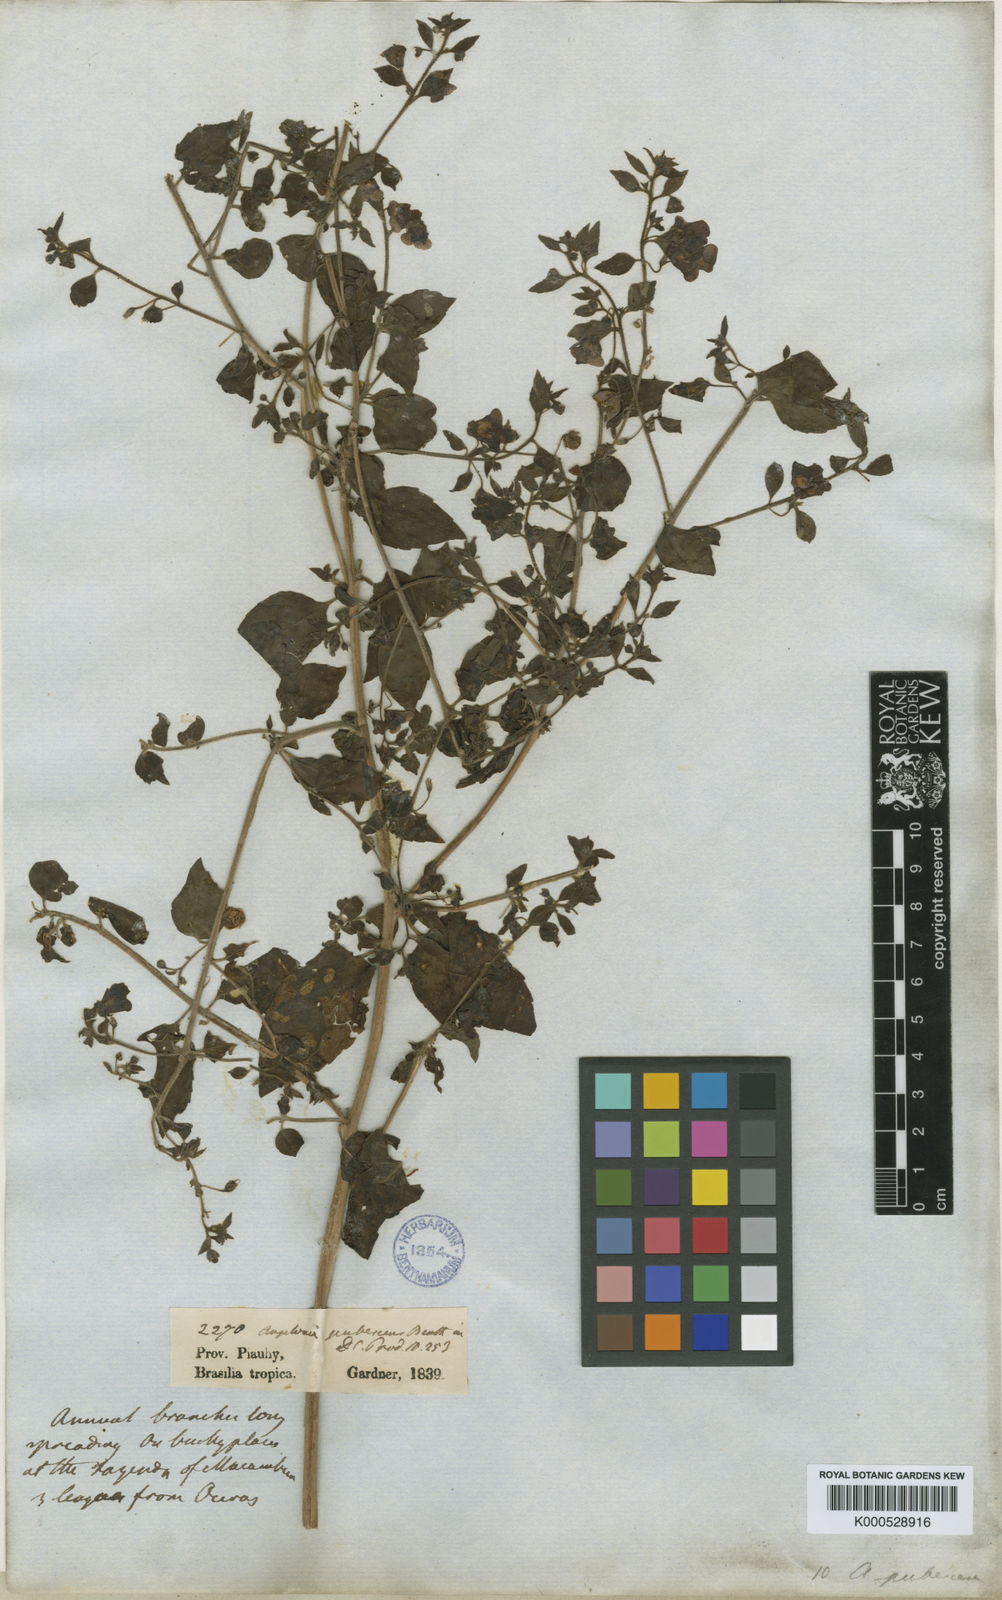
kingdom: Plantae
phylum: Tracheophyta
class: Magnoliopsida
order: Lamiales
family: Plantaginaceae
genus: Angelonia
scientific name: Angelonia pubescens
